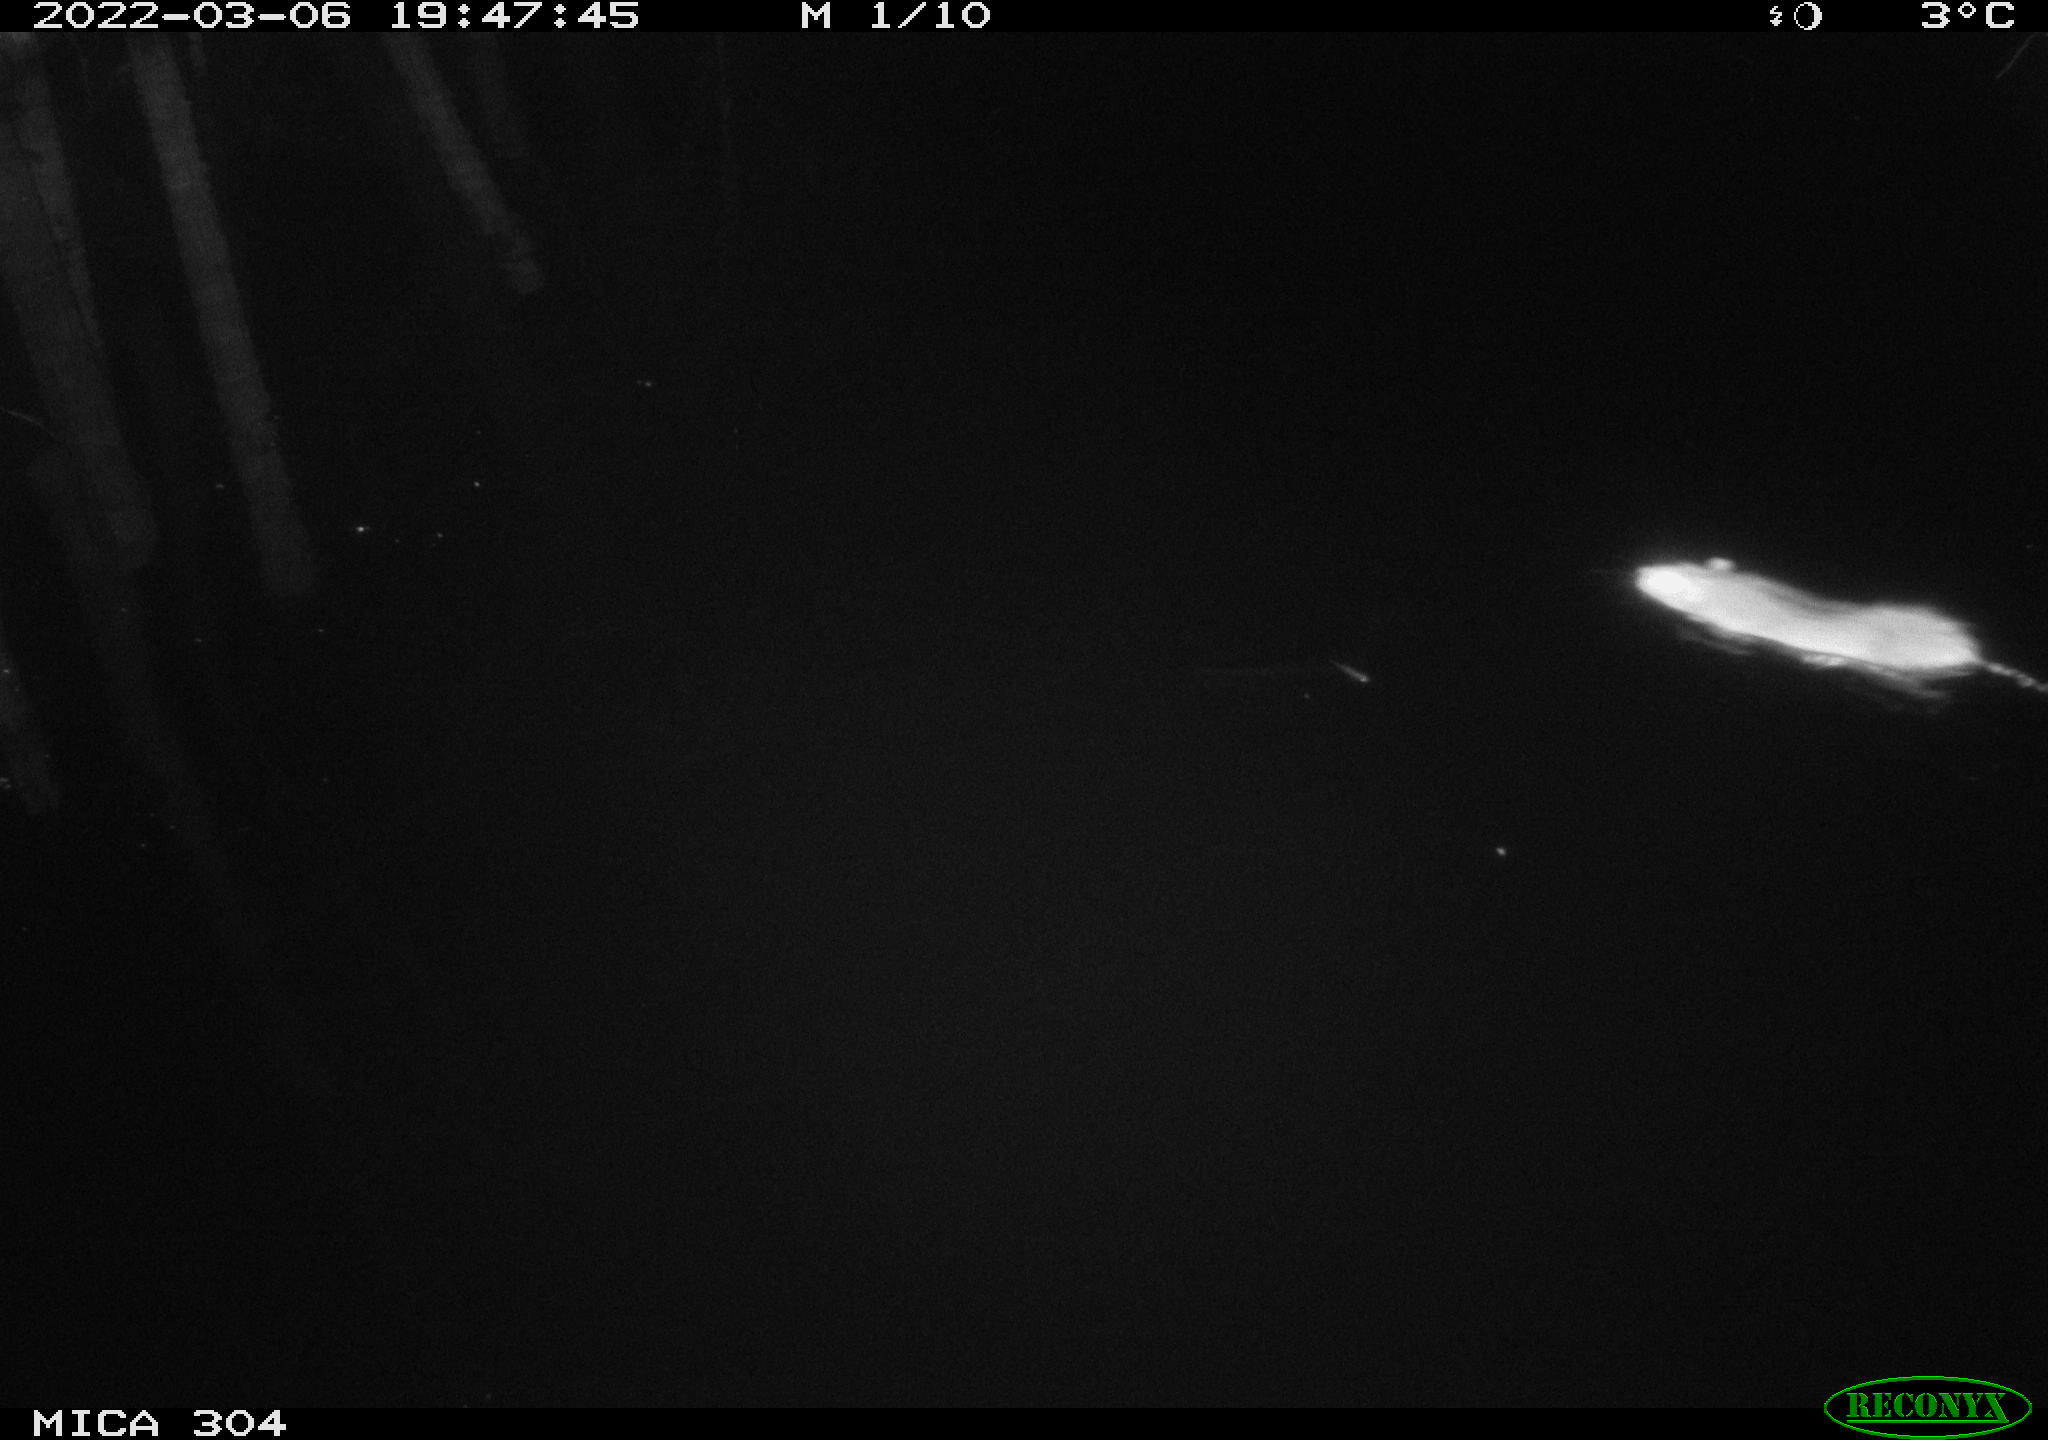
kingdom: Animalia
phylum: Chordata
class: Mammalia
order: Rodentia
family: Muridae
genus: Rattus
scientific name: Rattus norvegicus
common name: Brown rat
